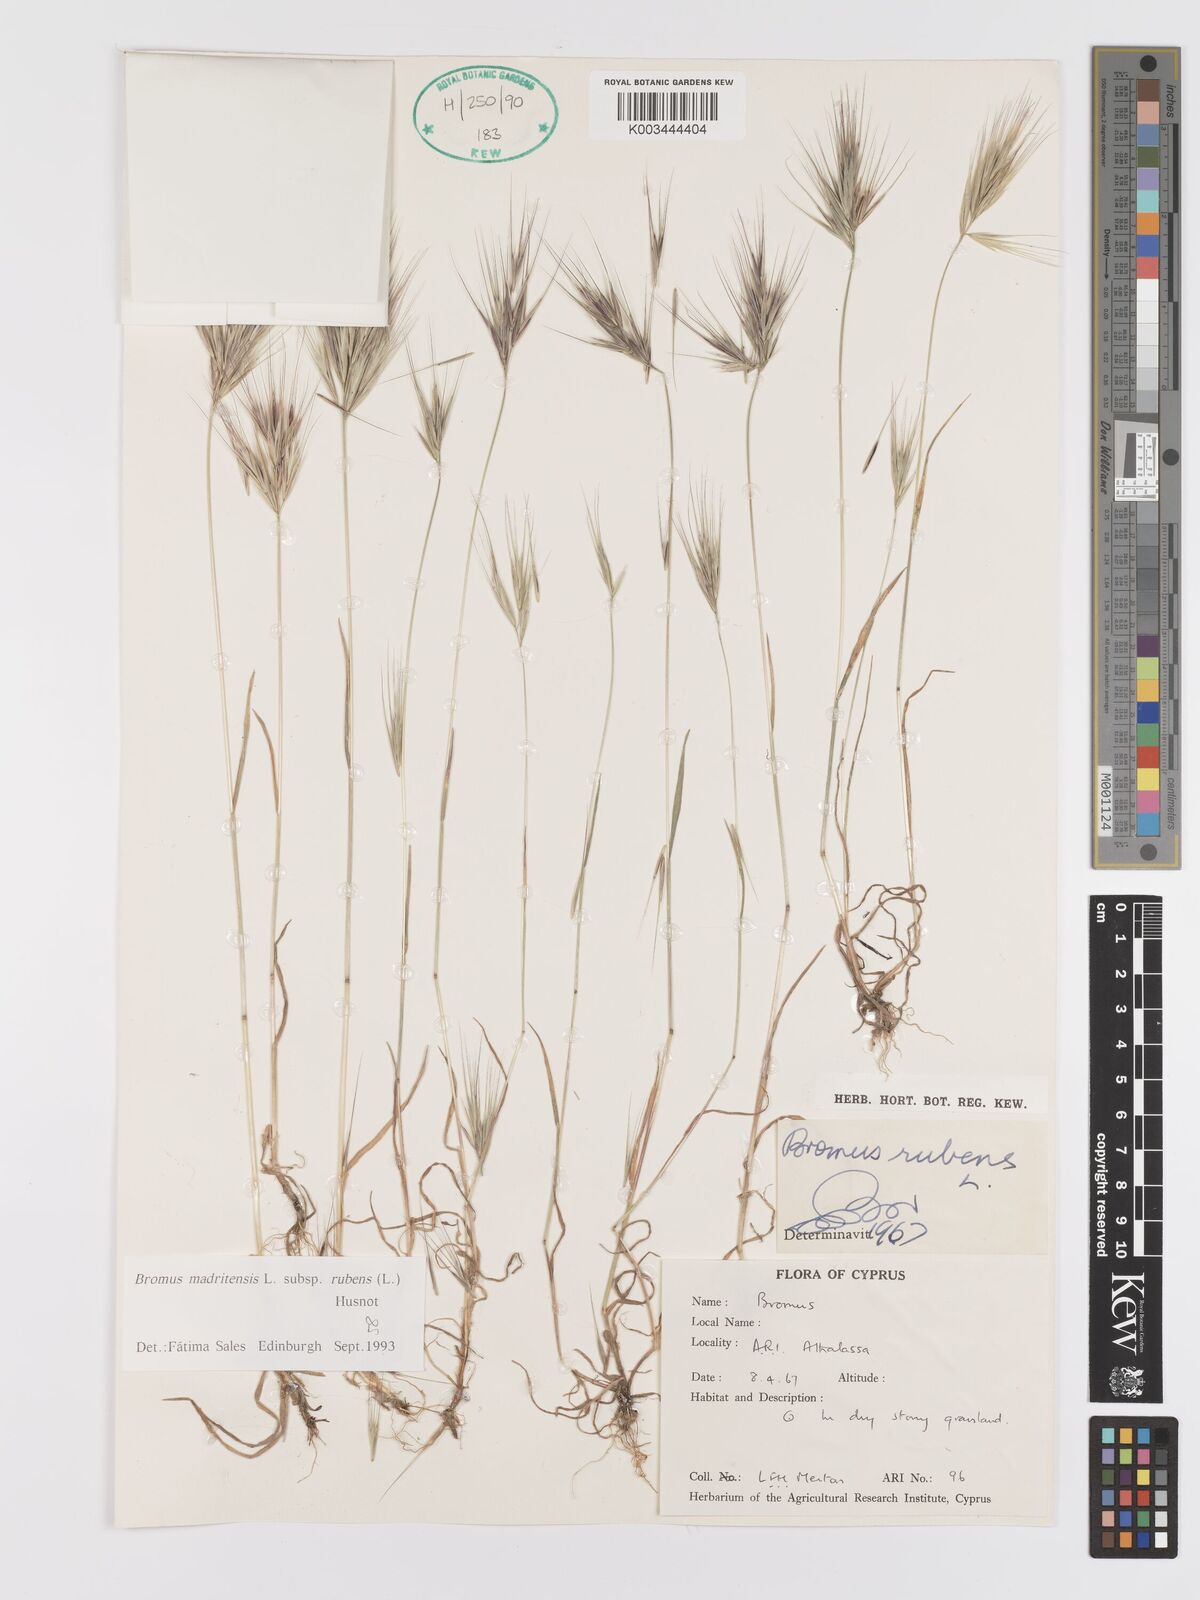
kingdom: Plantae
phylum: Tracheophyta
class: Liliopsida
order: Poales
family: Poaceae
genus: Bromus
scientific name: Bromus rubens
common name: Red brome
